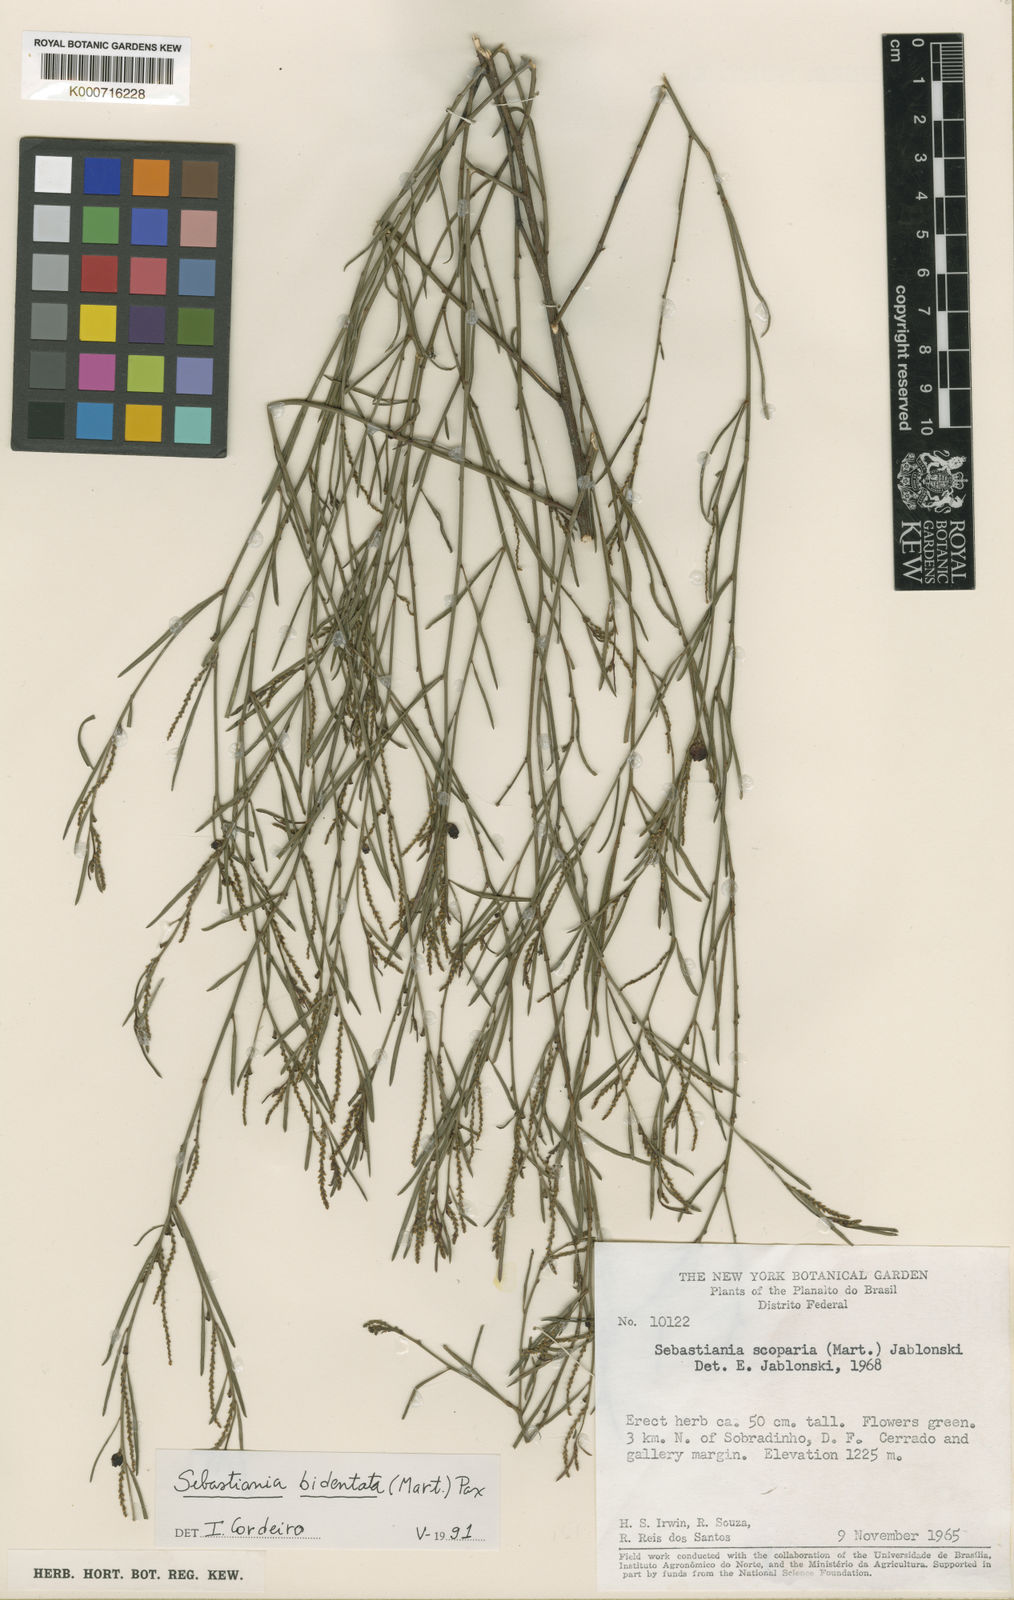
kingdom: Plantae
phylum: Tracheophyta
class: Magnoliopsida
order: Malpighiales
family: Euphorbiaceae
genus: Microstachys
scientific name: Microstachys bidentata
